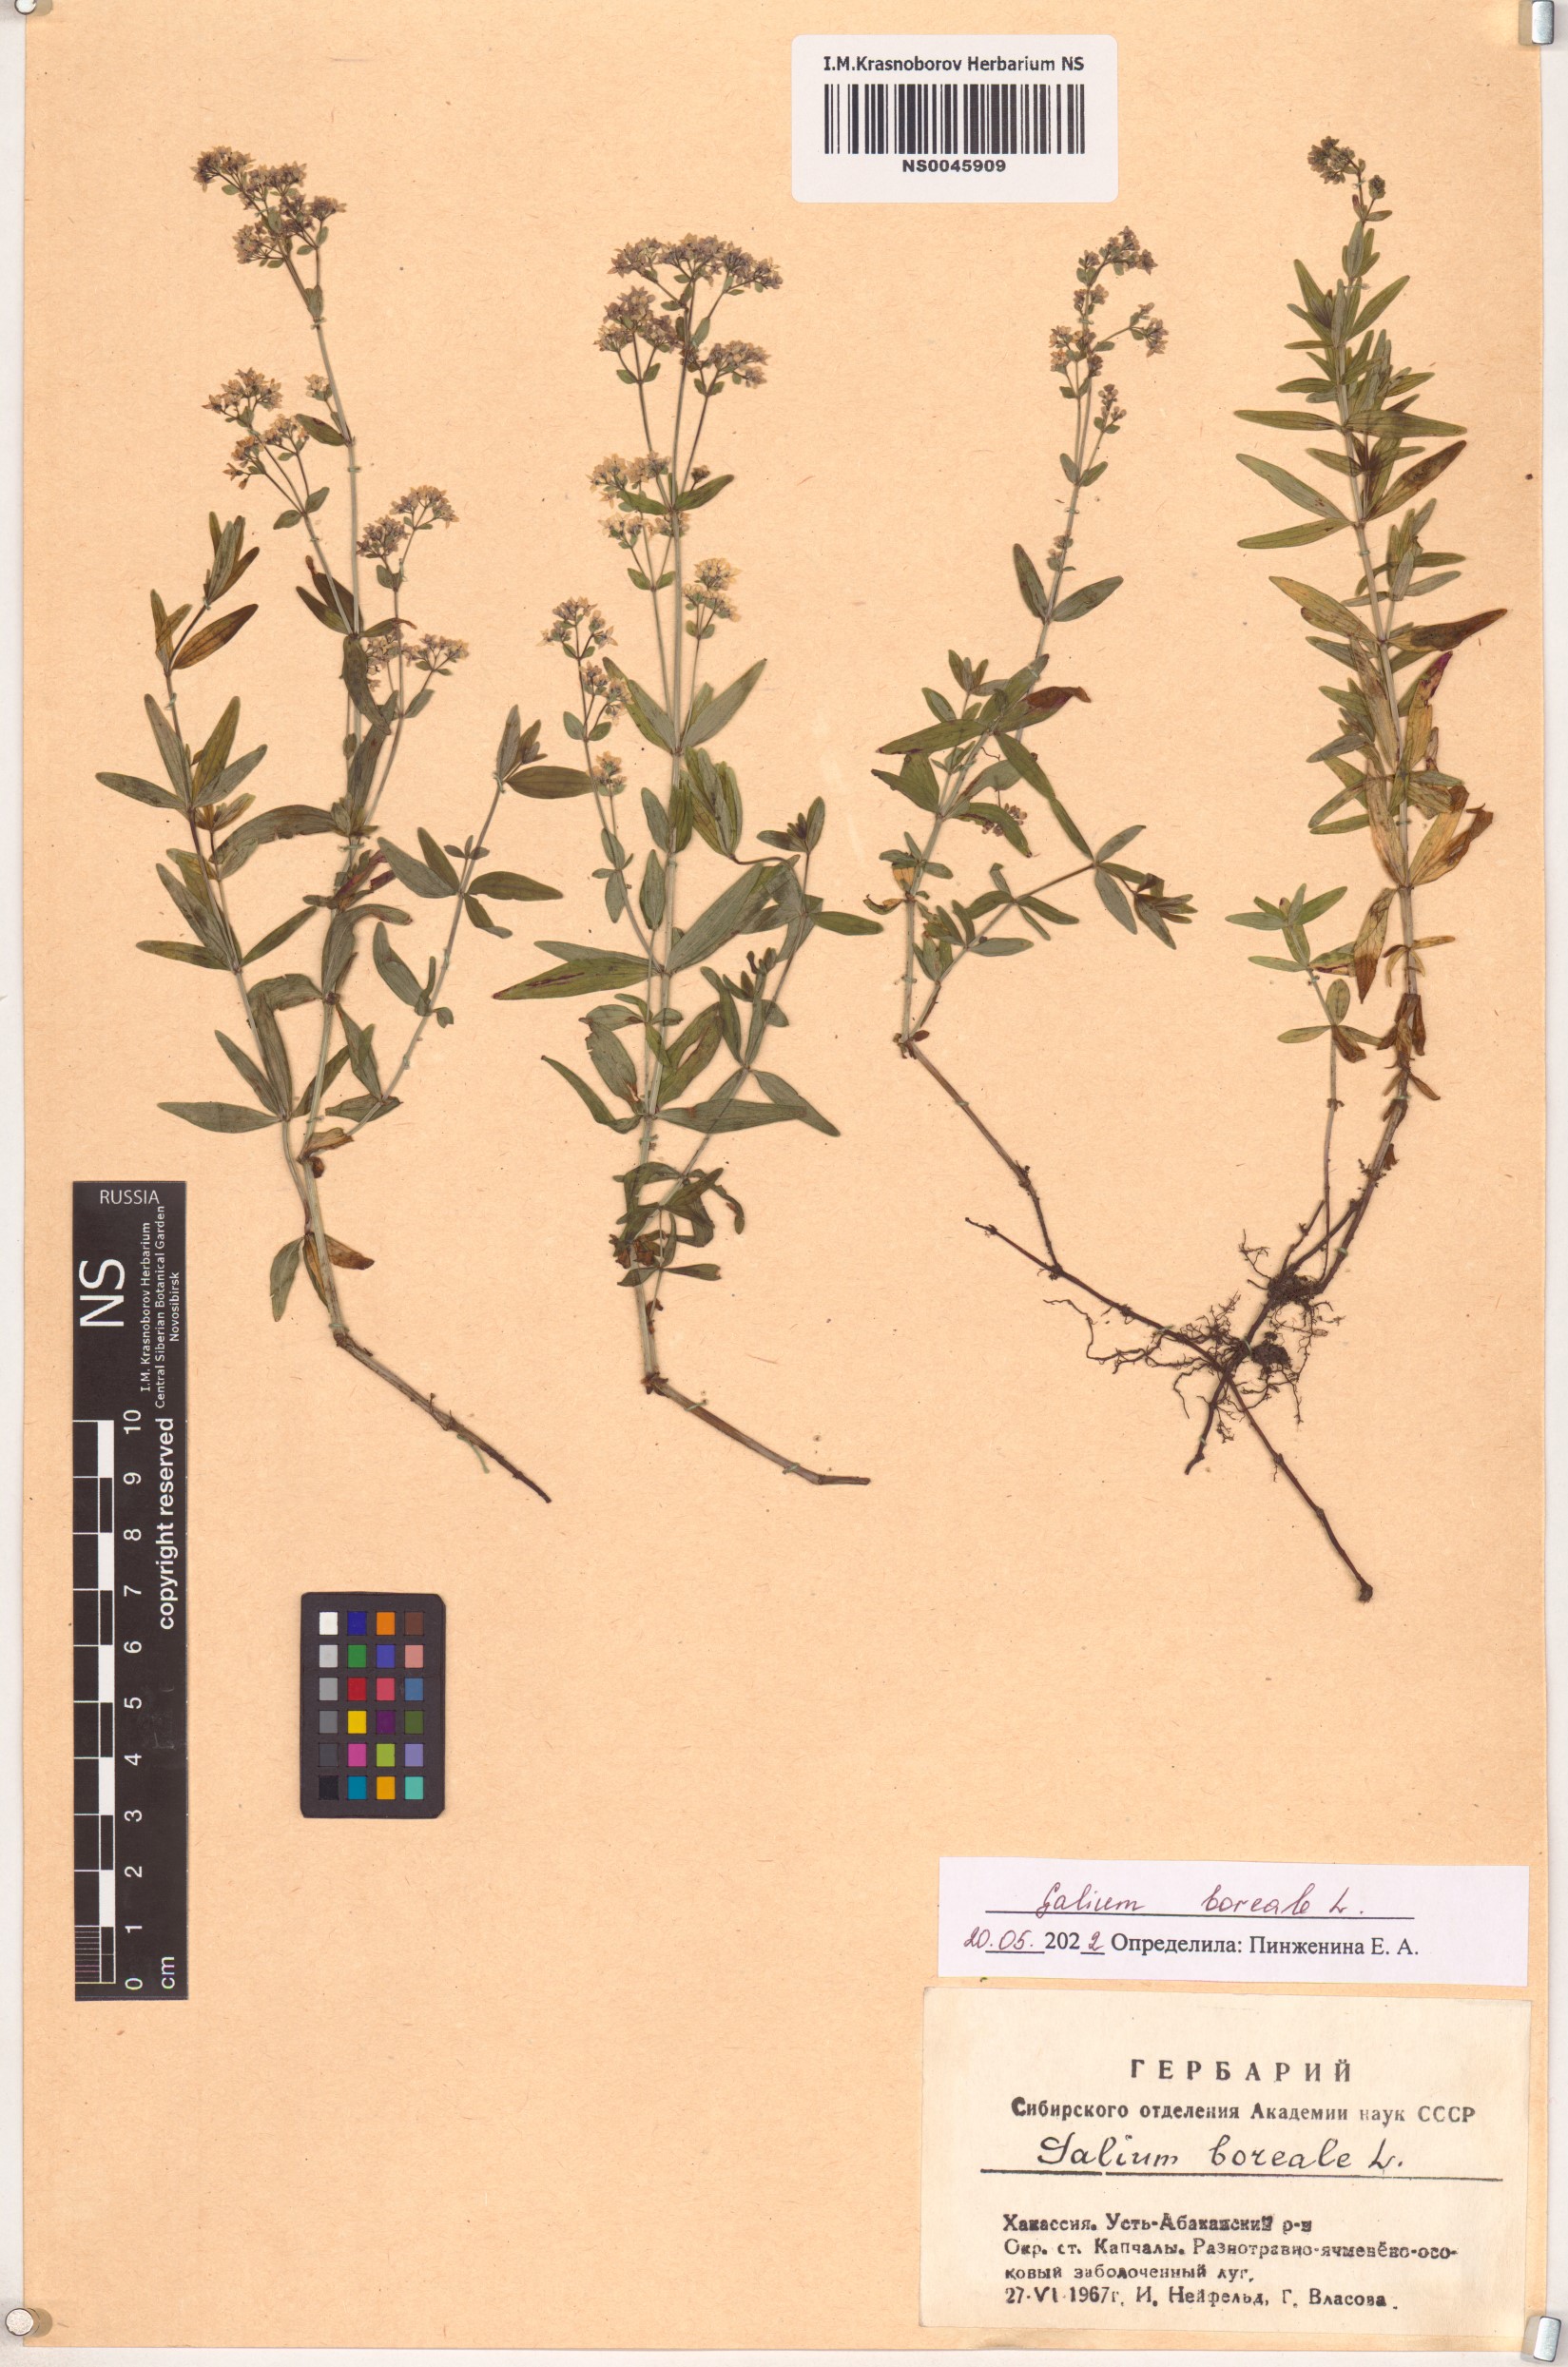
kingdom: Plantae
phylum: Tracheophyta
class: Magnoliopsida
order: Gentianales
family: Rubiaceae
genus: Galium
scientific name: Galium boreale
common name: Northern bedstraw
